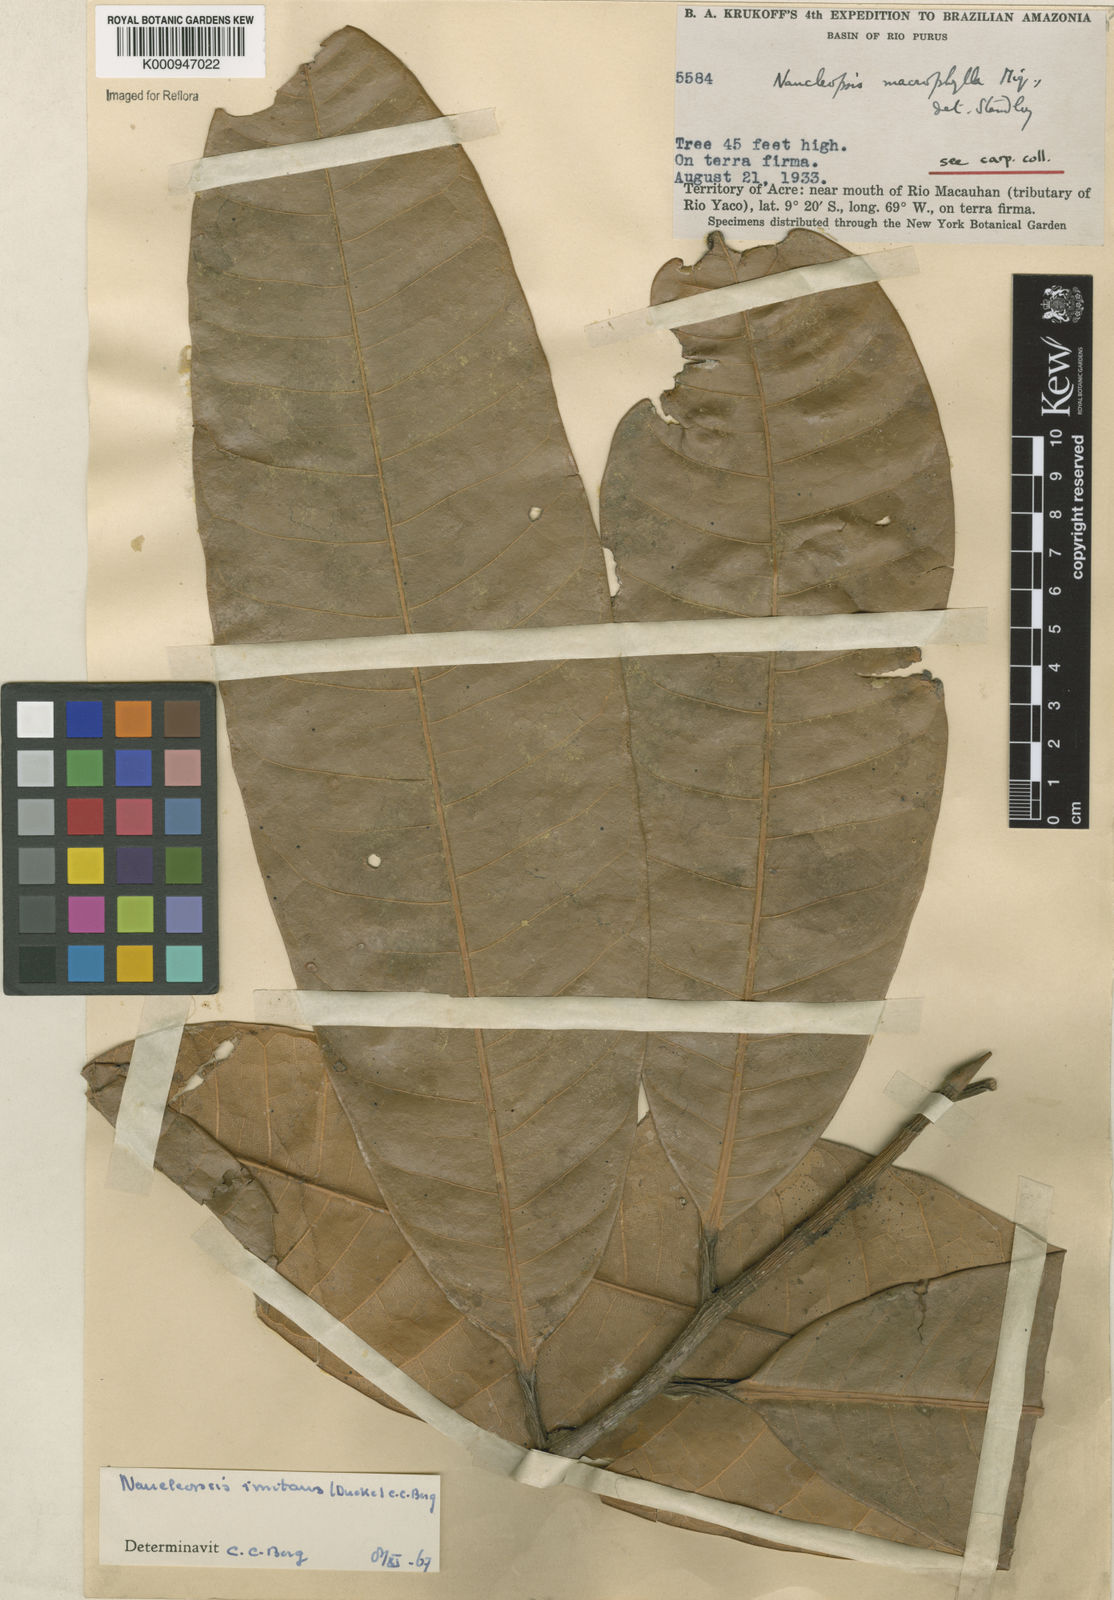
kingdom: Plantae
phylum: Tracheophyta
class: Magnoliopsida
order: Rosales
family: Moraceae
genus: Naucleopsis
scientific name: Naucleopsis imitans
